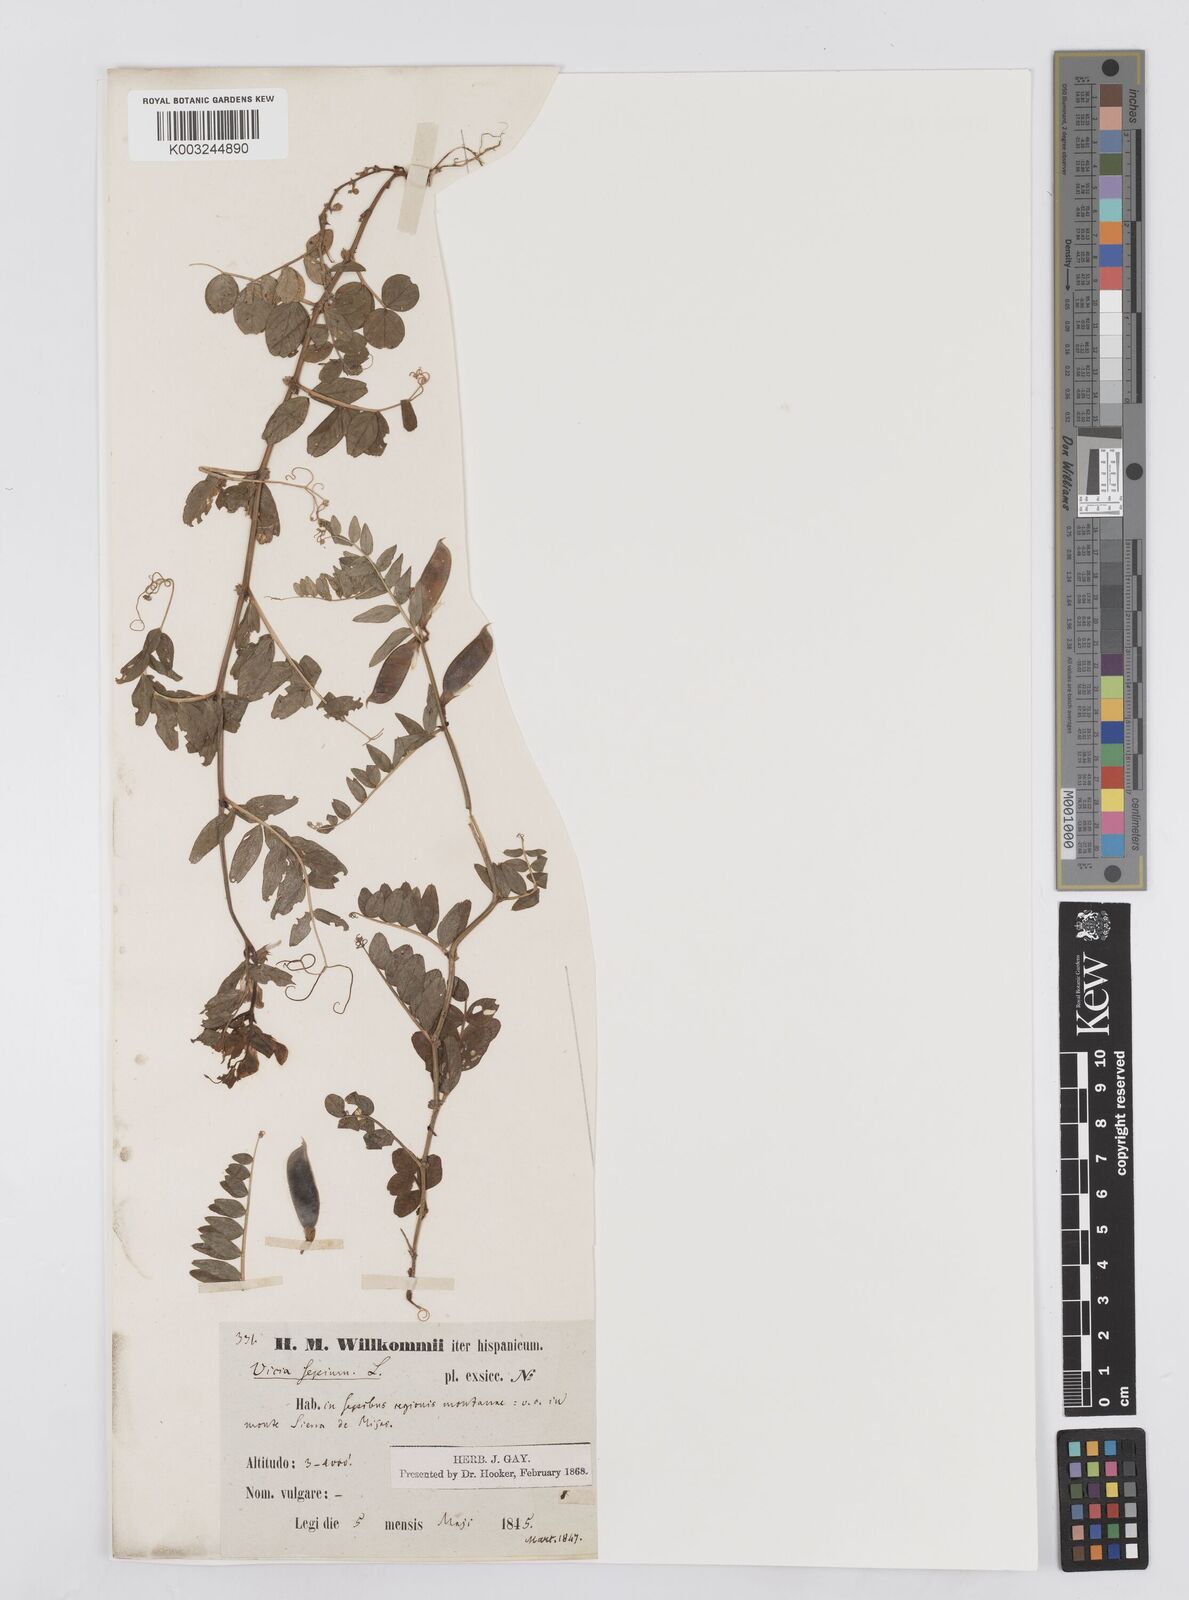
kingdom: Plantae
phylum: Tracheophyta
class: Magnoliopsida
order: Fabales
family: Fabaceae
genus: Vicia
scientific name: Vicia sepium
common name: Bush vetch
